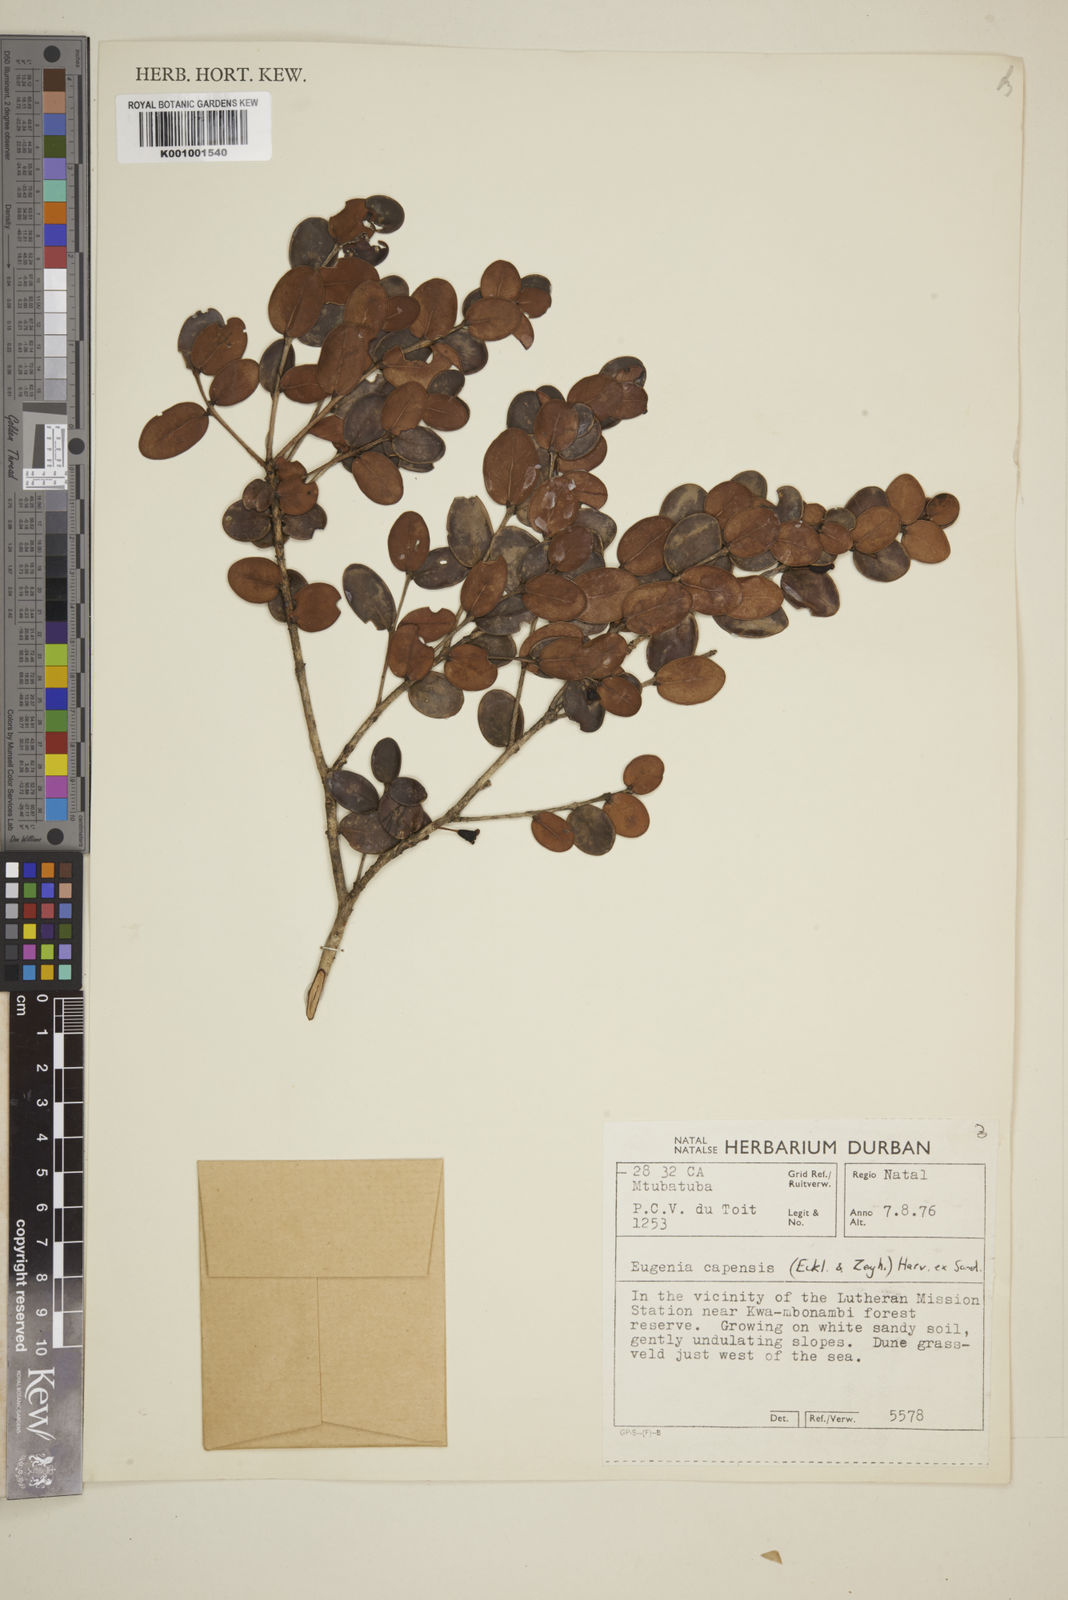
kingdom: Plantae
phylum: Tracheophyta
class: Magnoliopsida
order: Myrtales
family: Myrtaceae
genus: Eugenia
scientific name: Eugenia capensis
